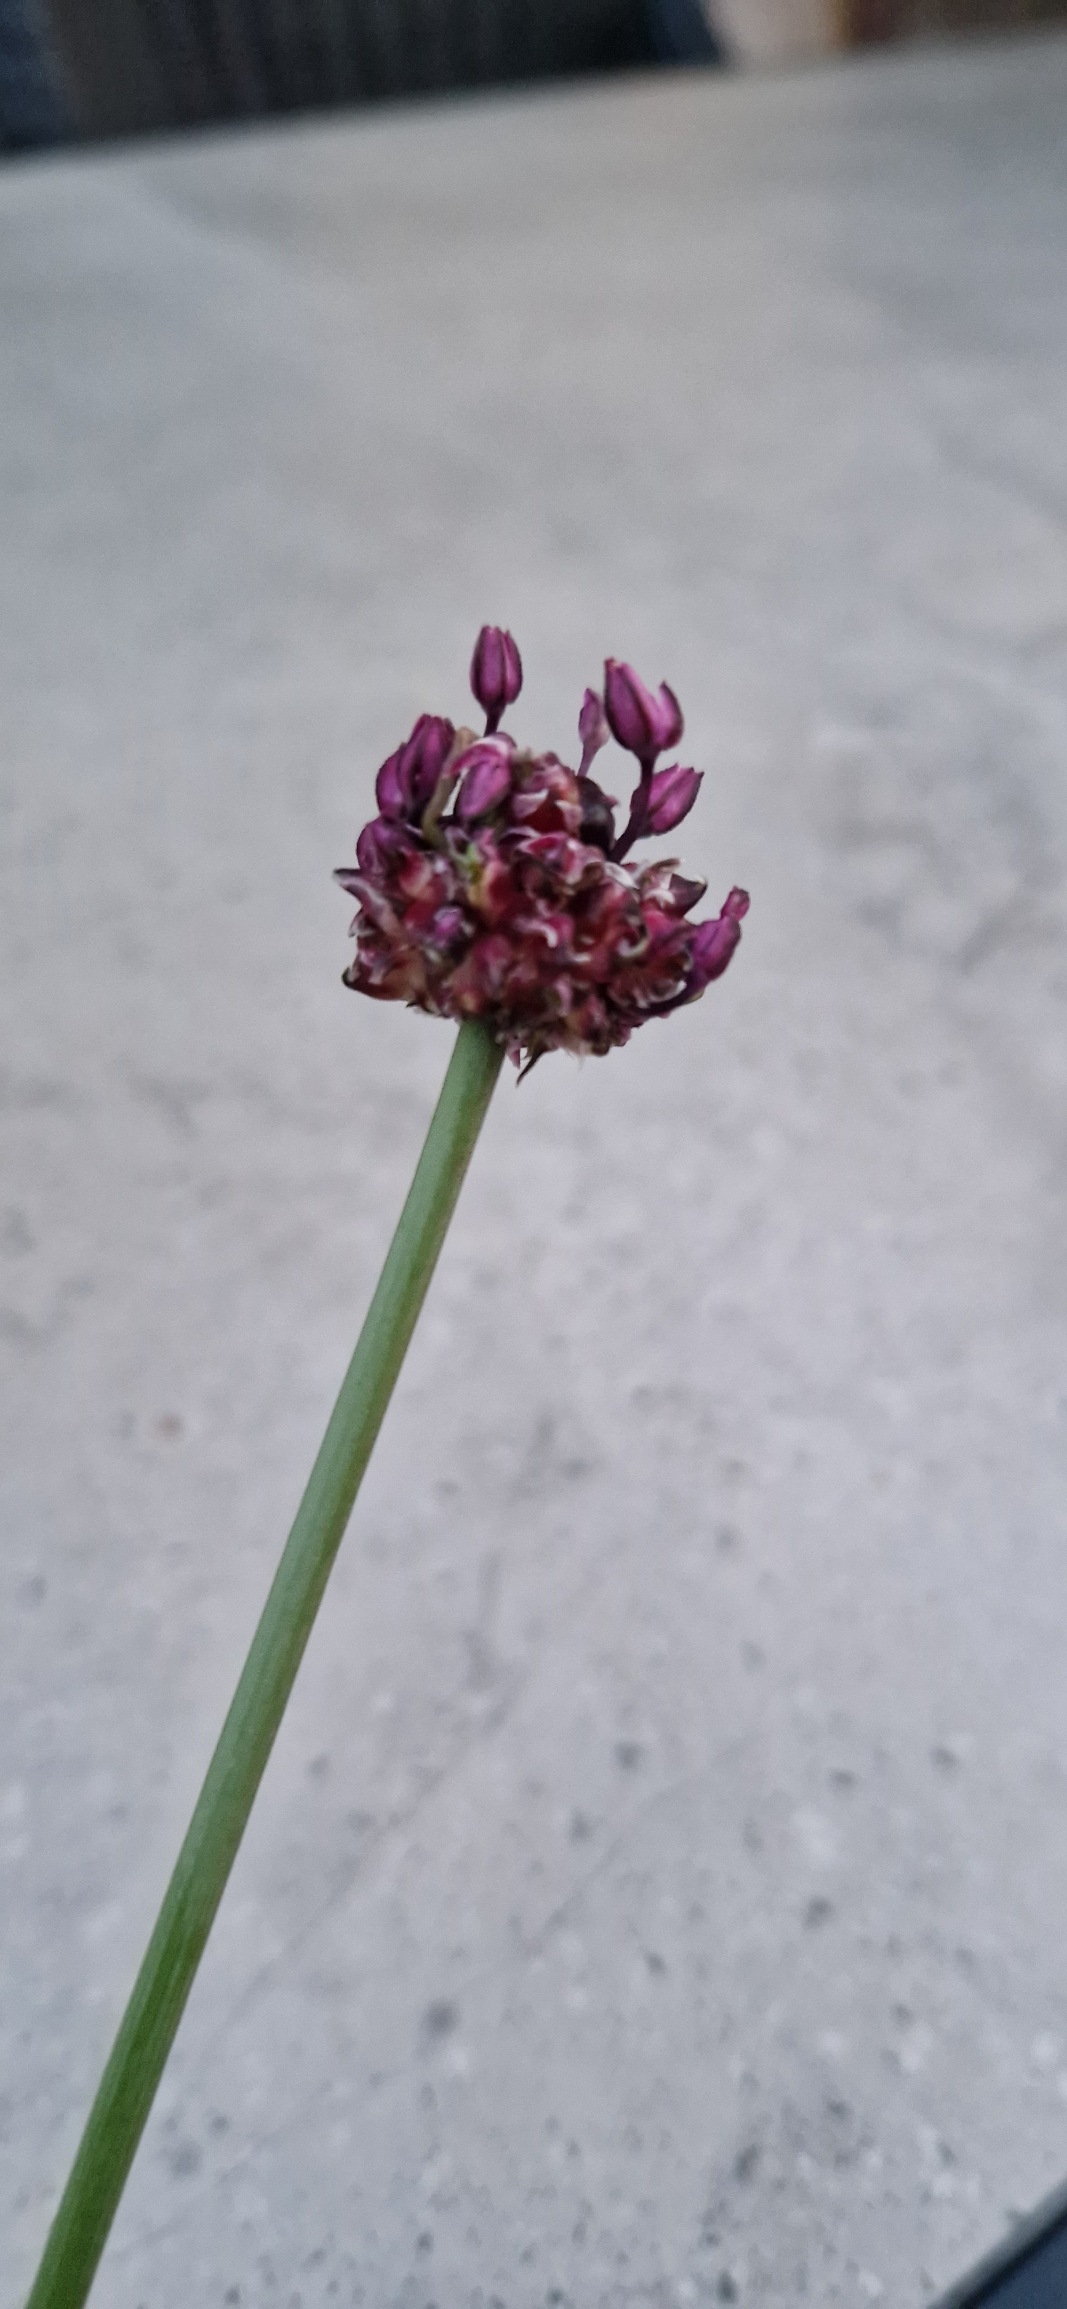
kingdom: Plantae
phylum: Tracheophyta
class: Liliopsida
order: Asparagales
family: Amaryllidaceae
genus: Allium
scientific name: Allium scorodoprasum
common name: Skov-løg
